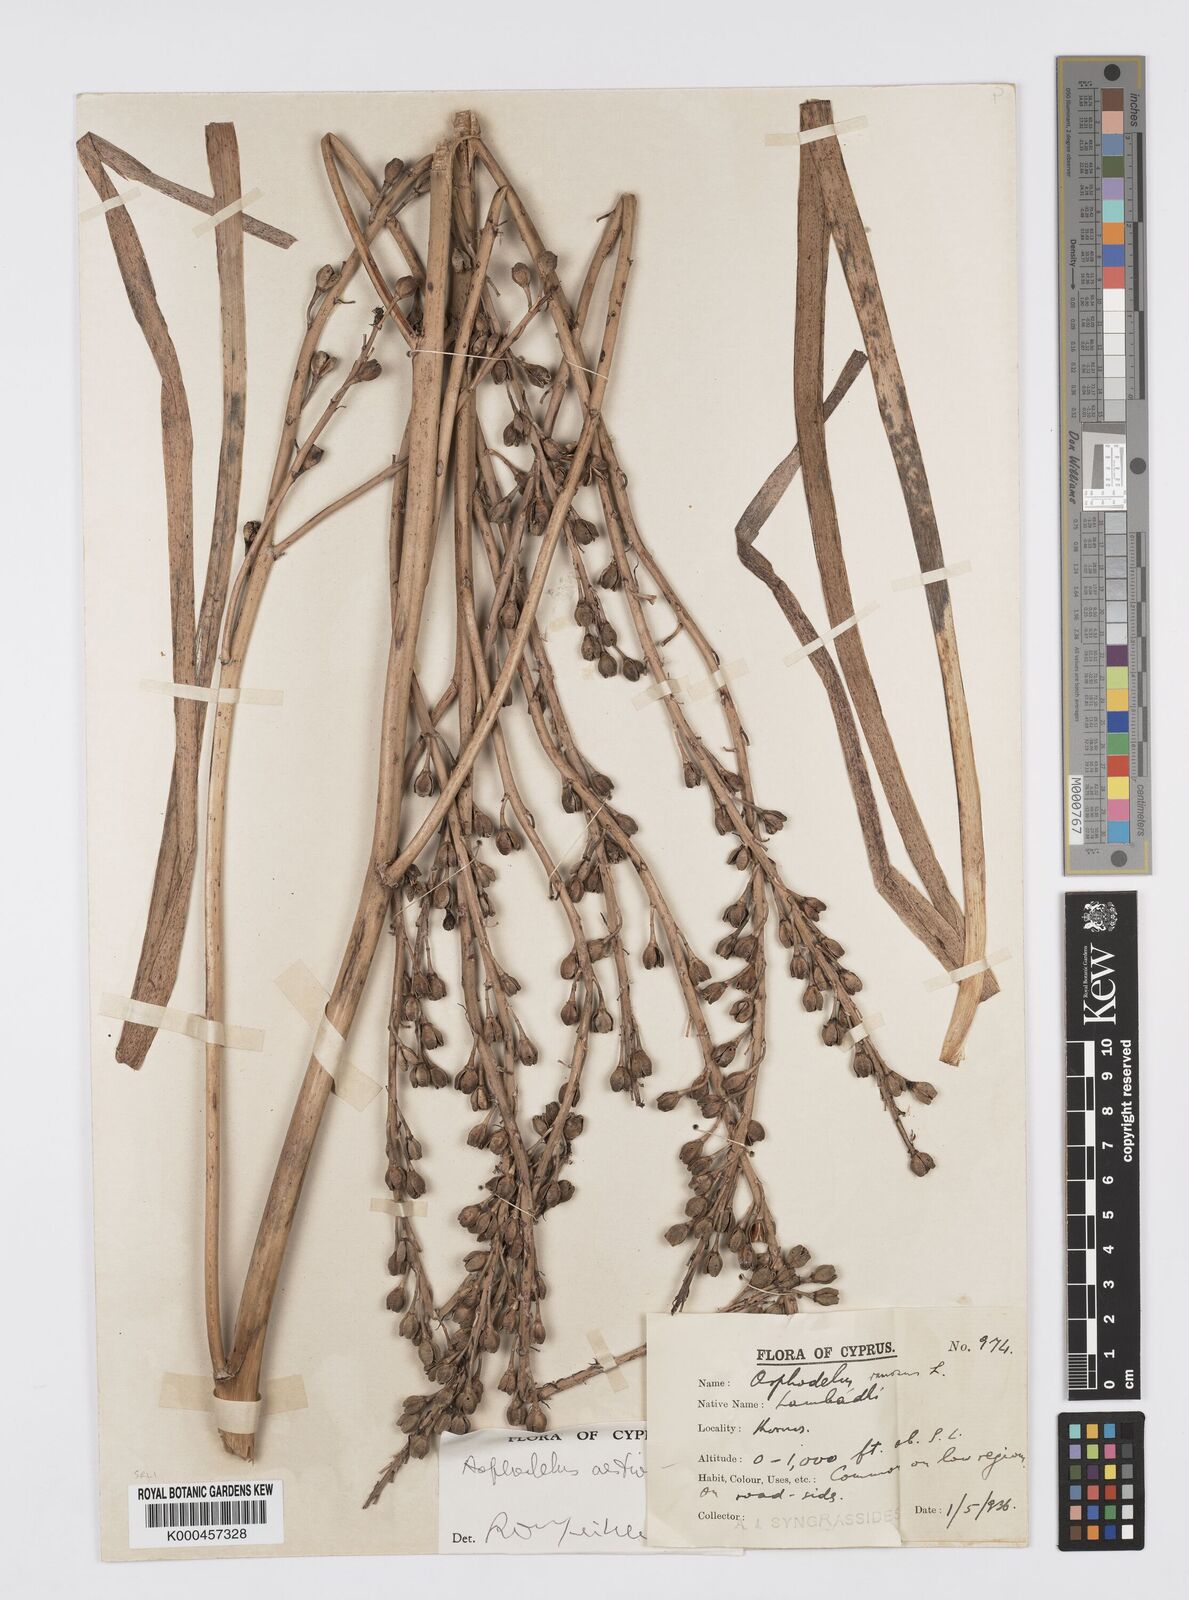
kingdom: Plantae
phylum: Tracheophyta
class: Liliopsida
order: Asparagales
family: Asphodelaceae
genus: Asphodelus
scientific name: Asphodelus aestivus
